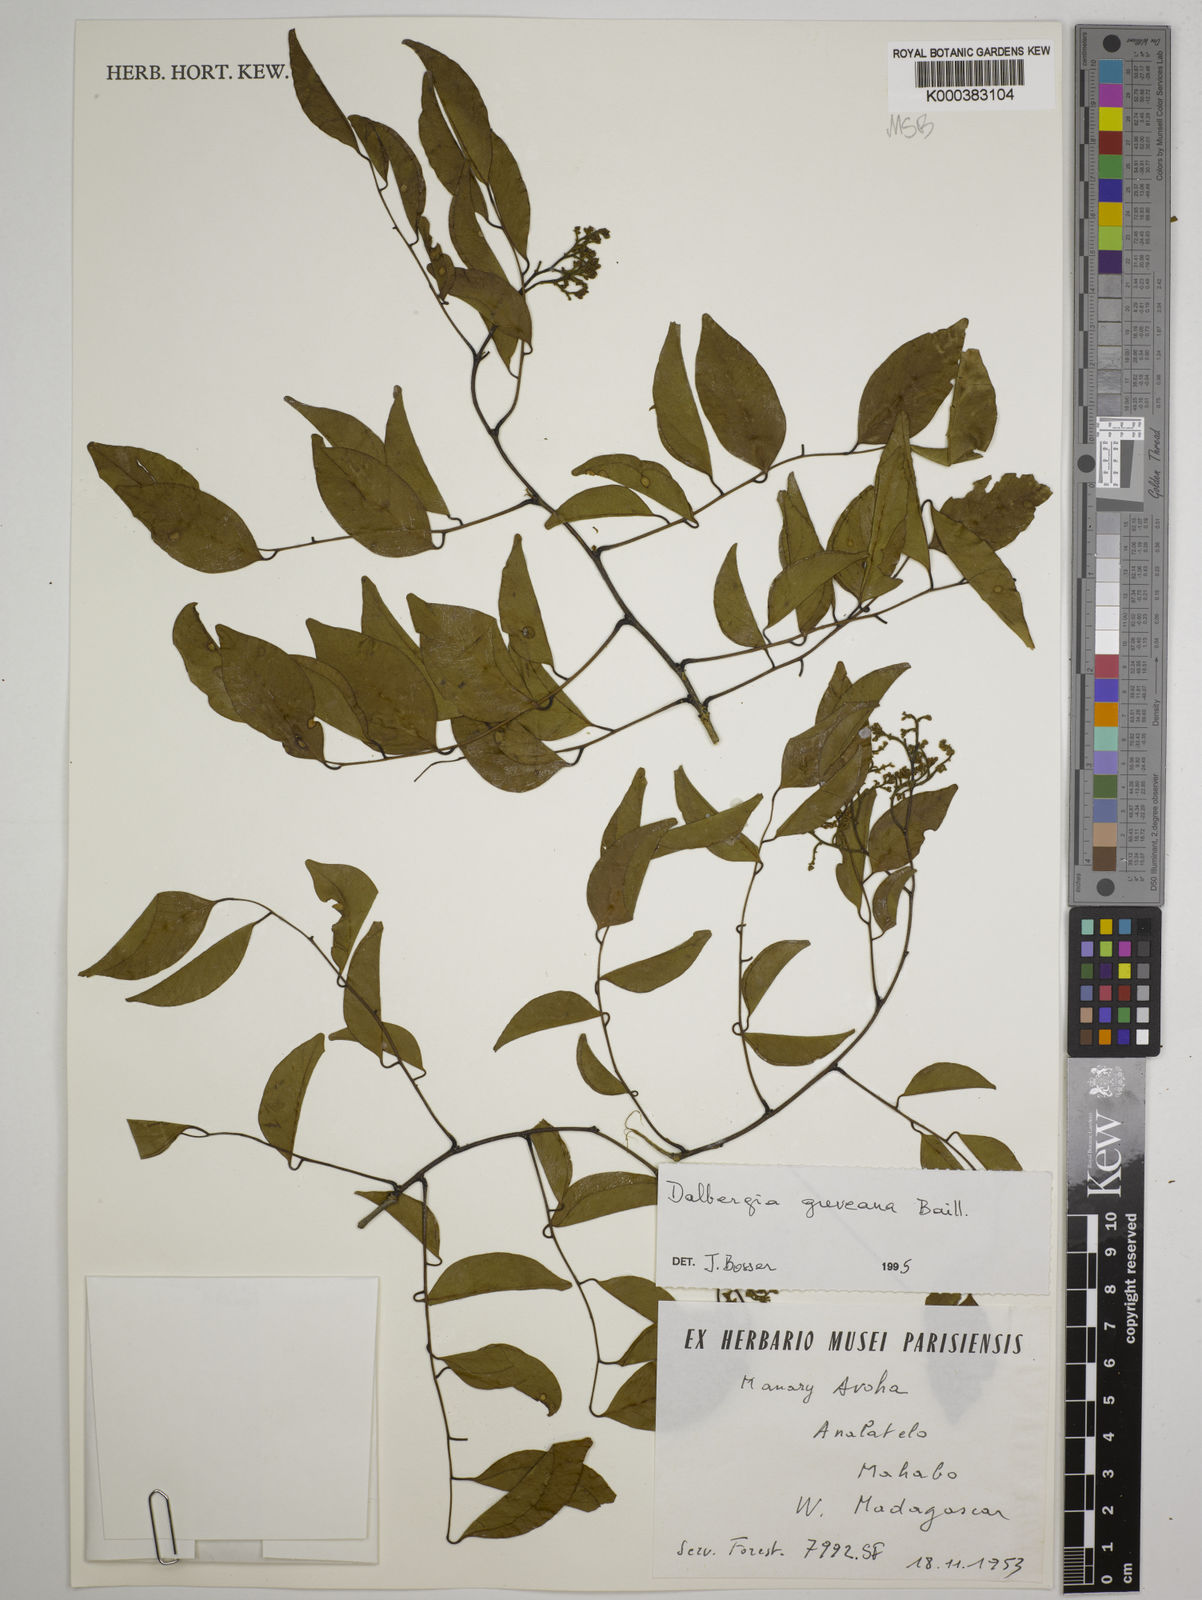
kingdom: Plantae
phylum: Tracheophyta
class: Magnoliopsida
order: Fabales
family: Fabaceae
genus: Dalbergia
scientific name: Dalbergia greveana
